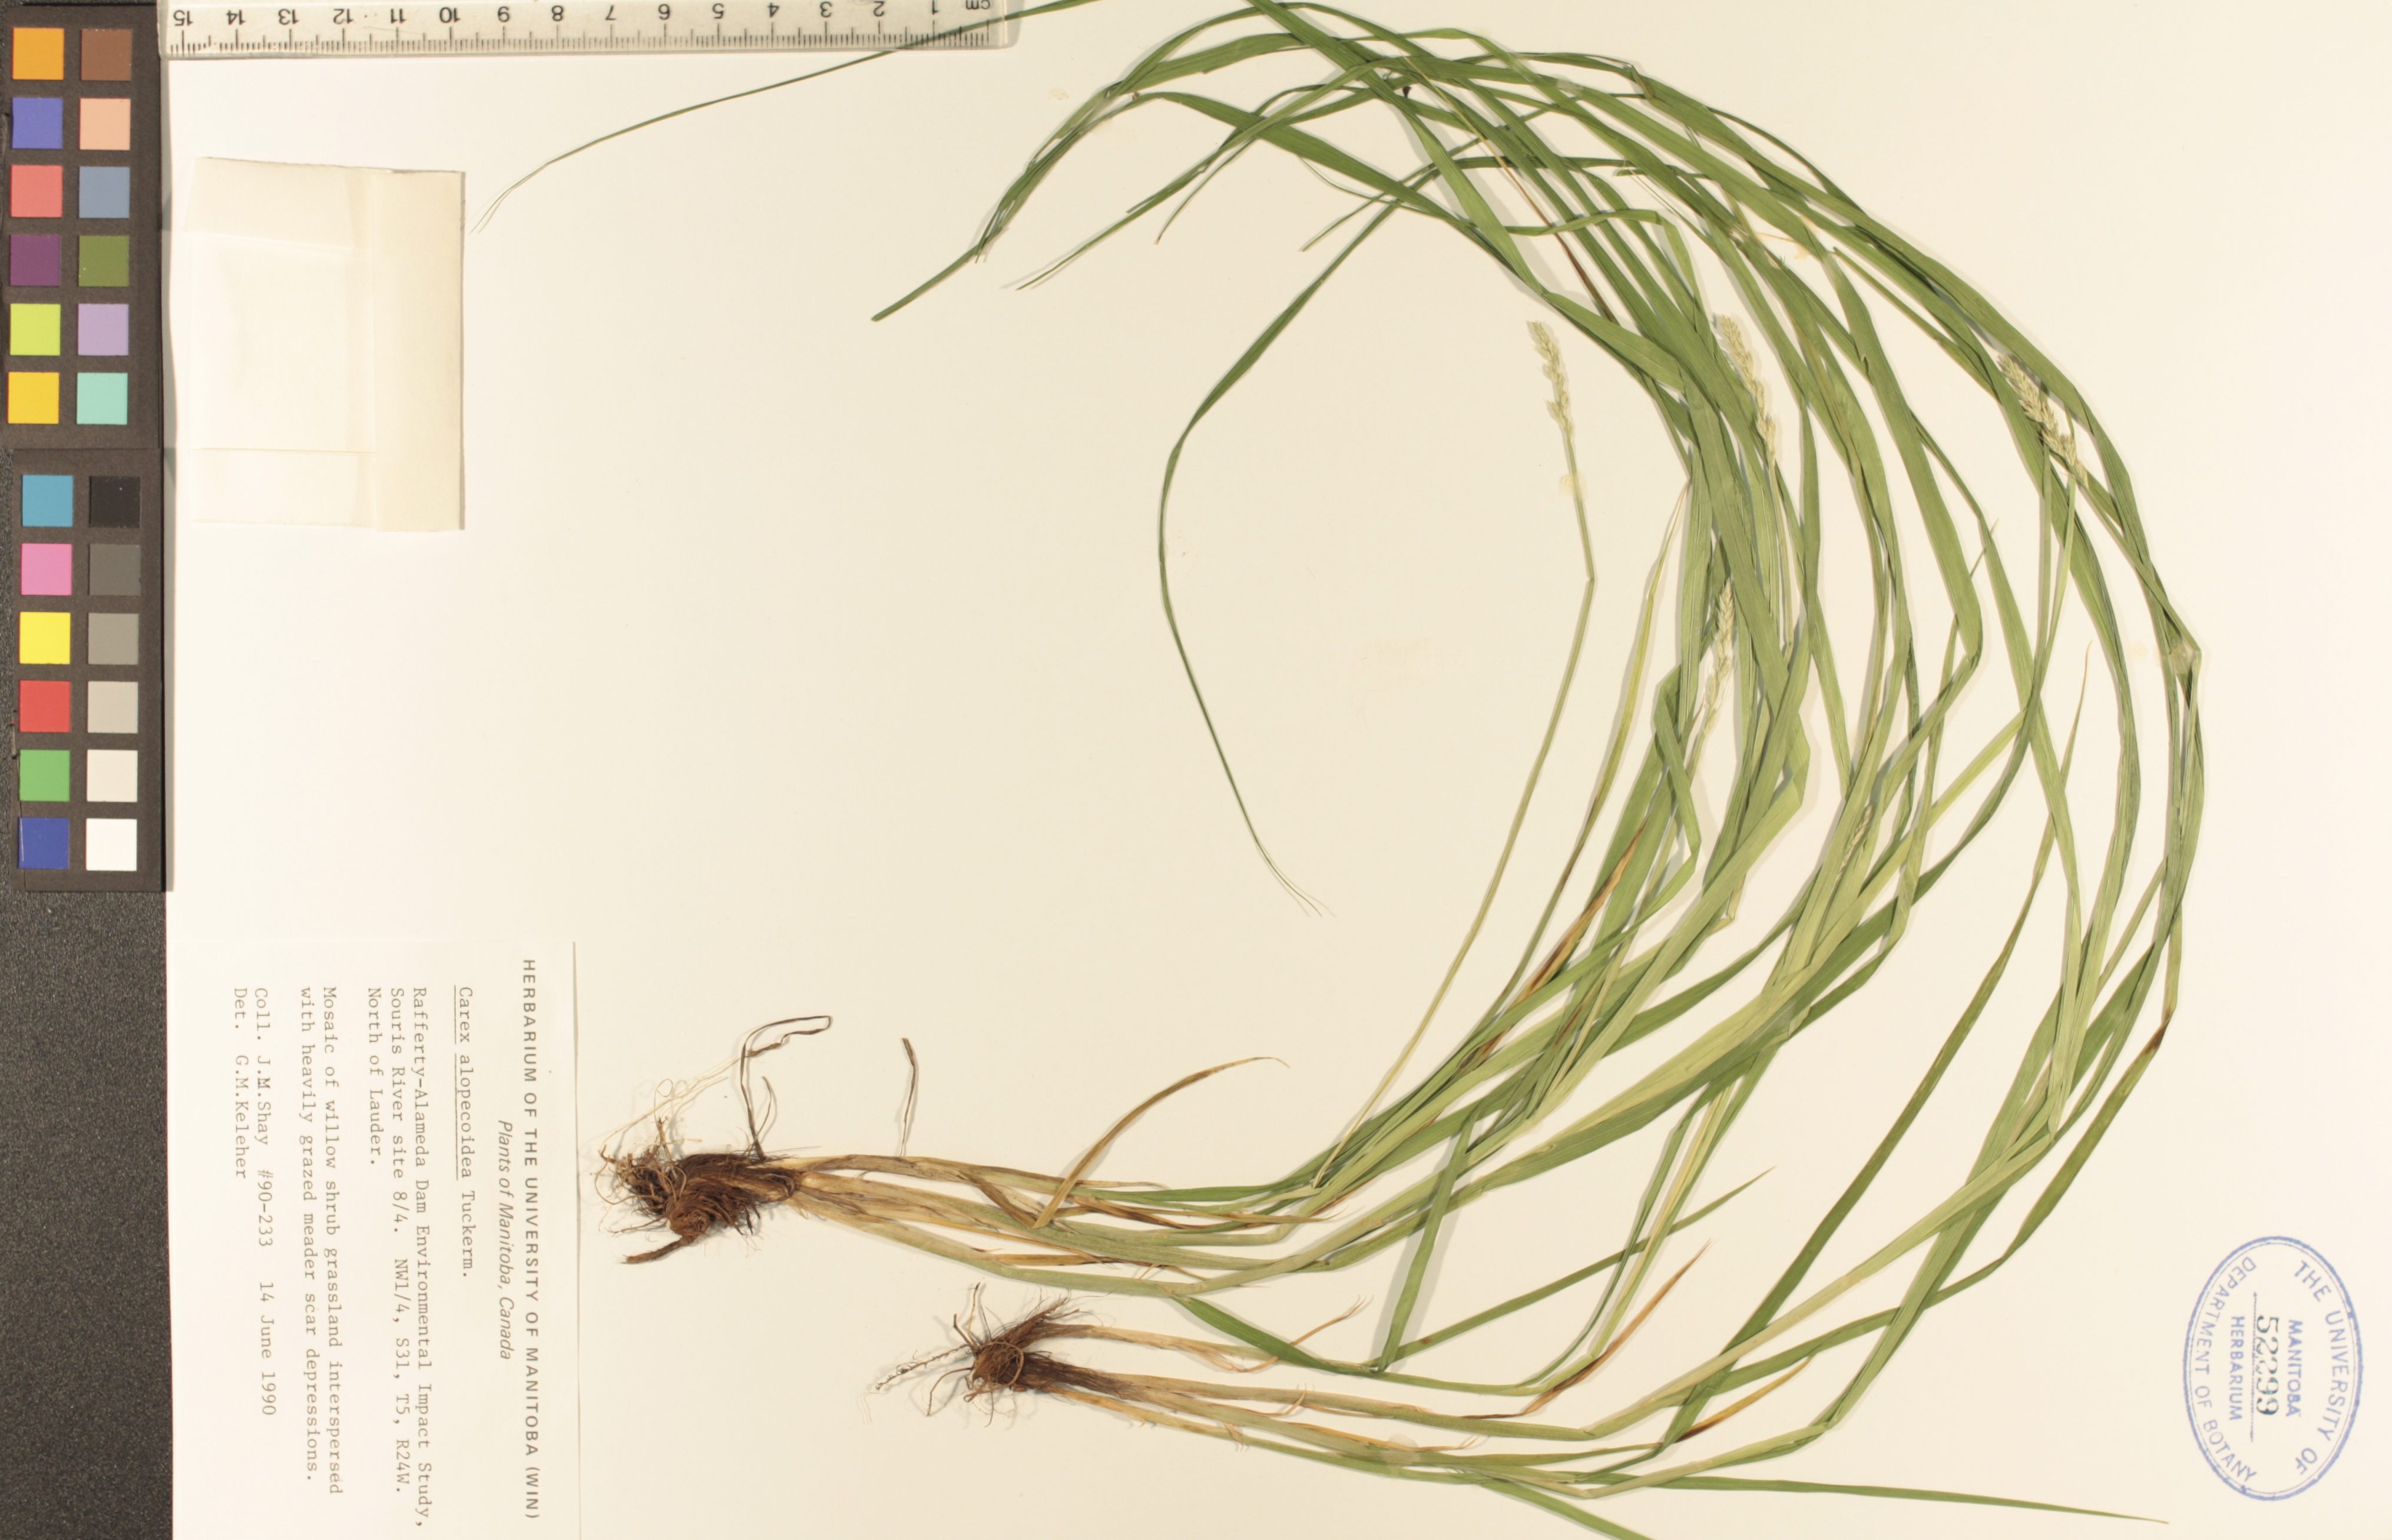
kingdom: Plantae
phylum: Tracheophyta
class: Liliopsida
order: Poales
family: Cyperaceae
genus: Carex
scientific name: Carex alopecoidea
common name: Brown-headed fox sedge
